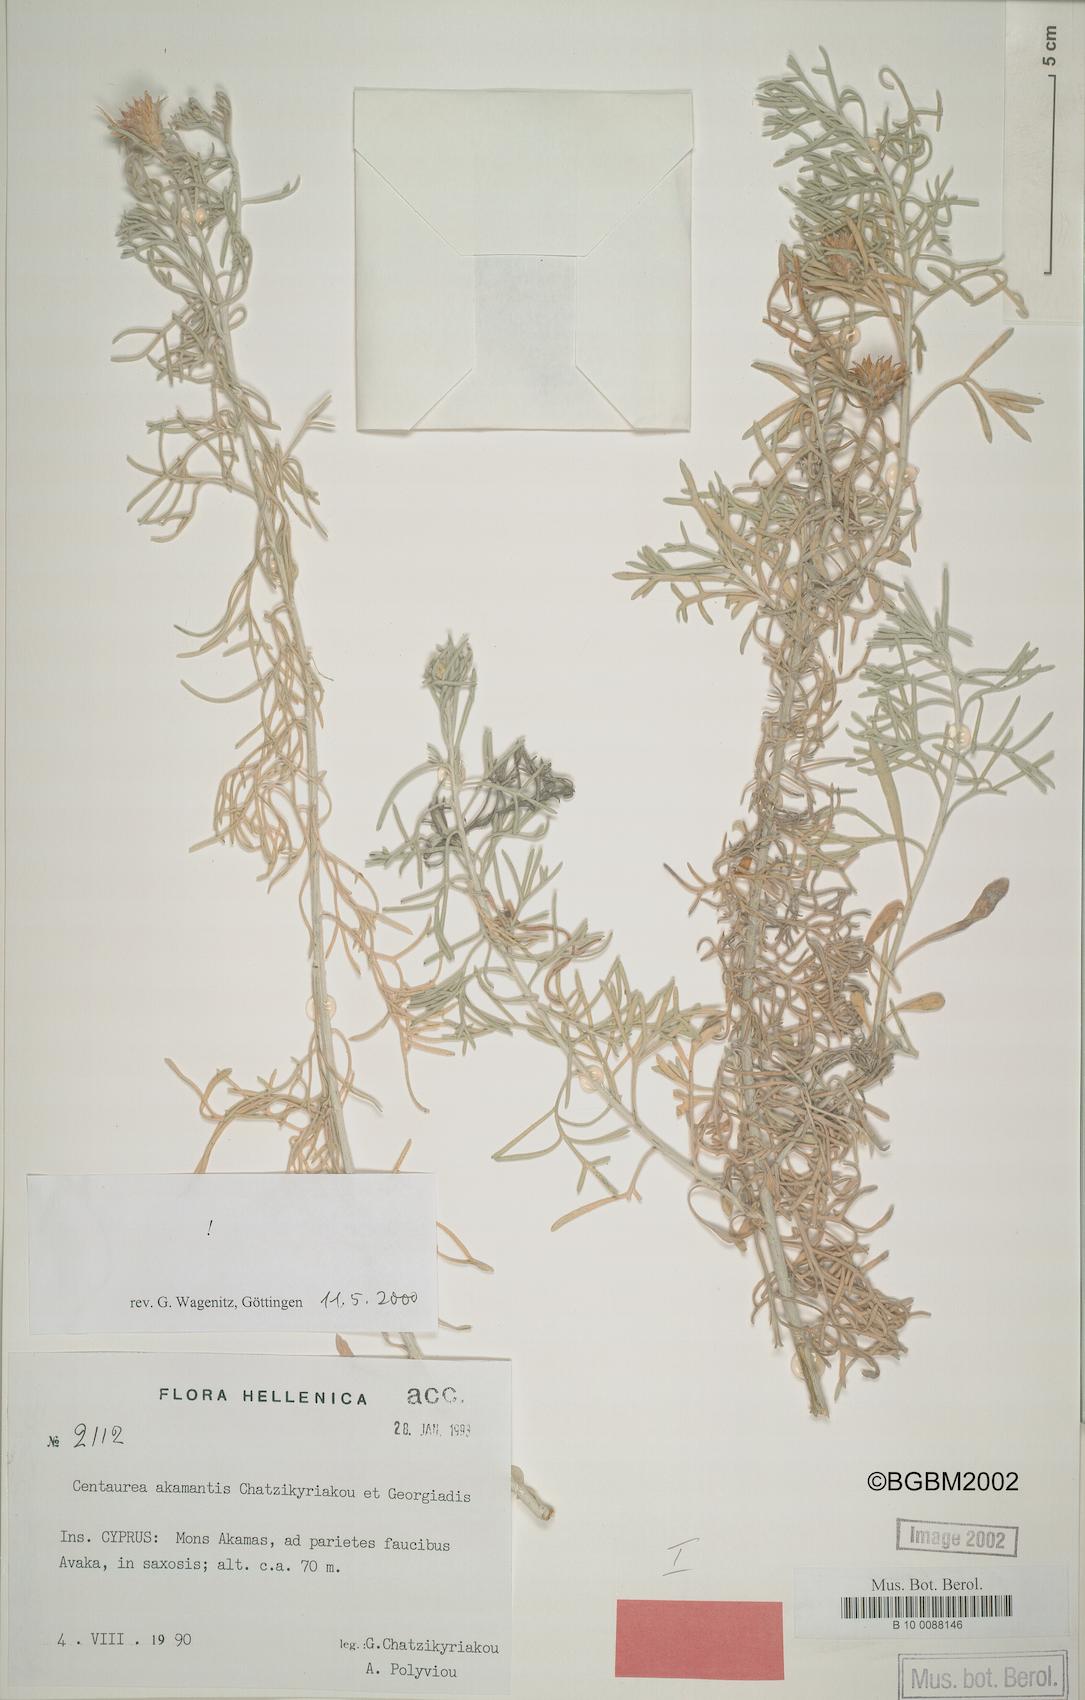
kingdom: Plantae
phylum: Tracheophyta
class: Magnoliopsida
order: Asterales
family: Asteraceae
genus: Centaurea
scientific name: Centaurea akamantis
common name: Akamas centaury
